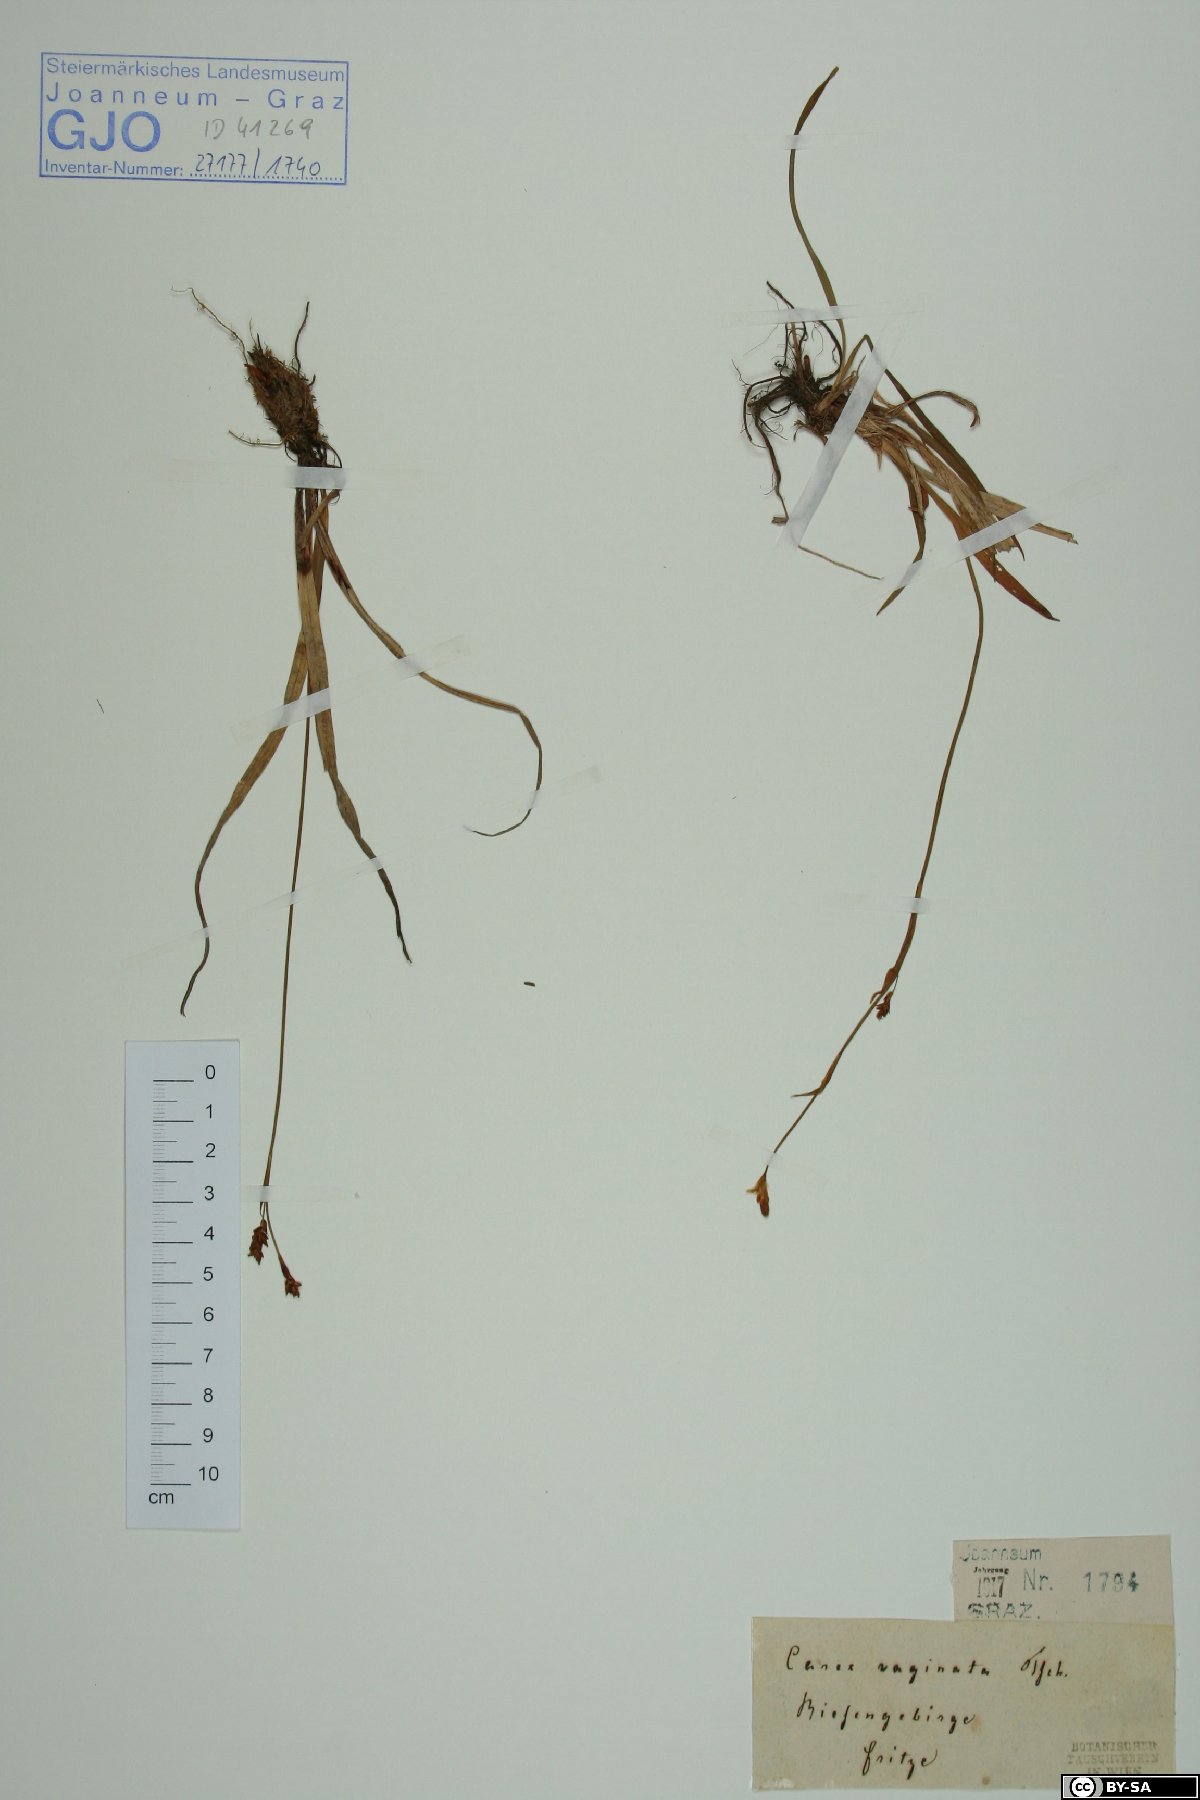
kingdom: Plantae
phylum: Tracheophyta
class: Liliopsida
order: Poales
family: Cyperaceae
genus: Carex
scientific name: Carex vaginata
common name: Sheathed sedge
